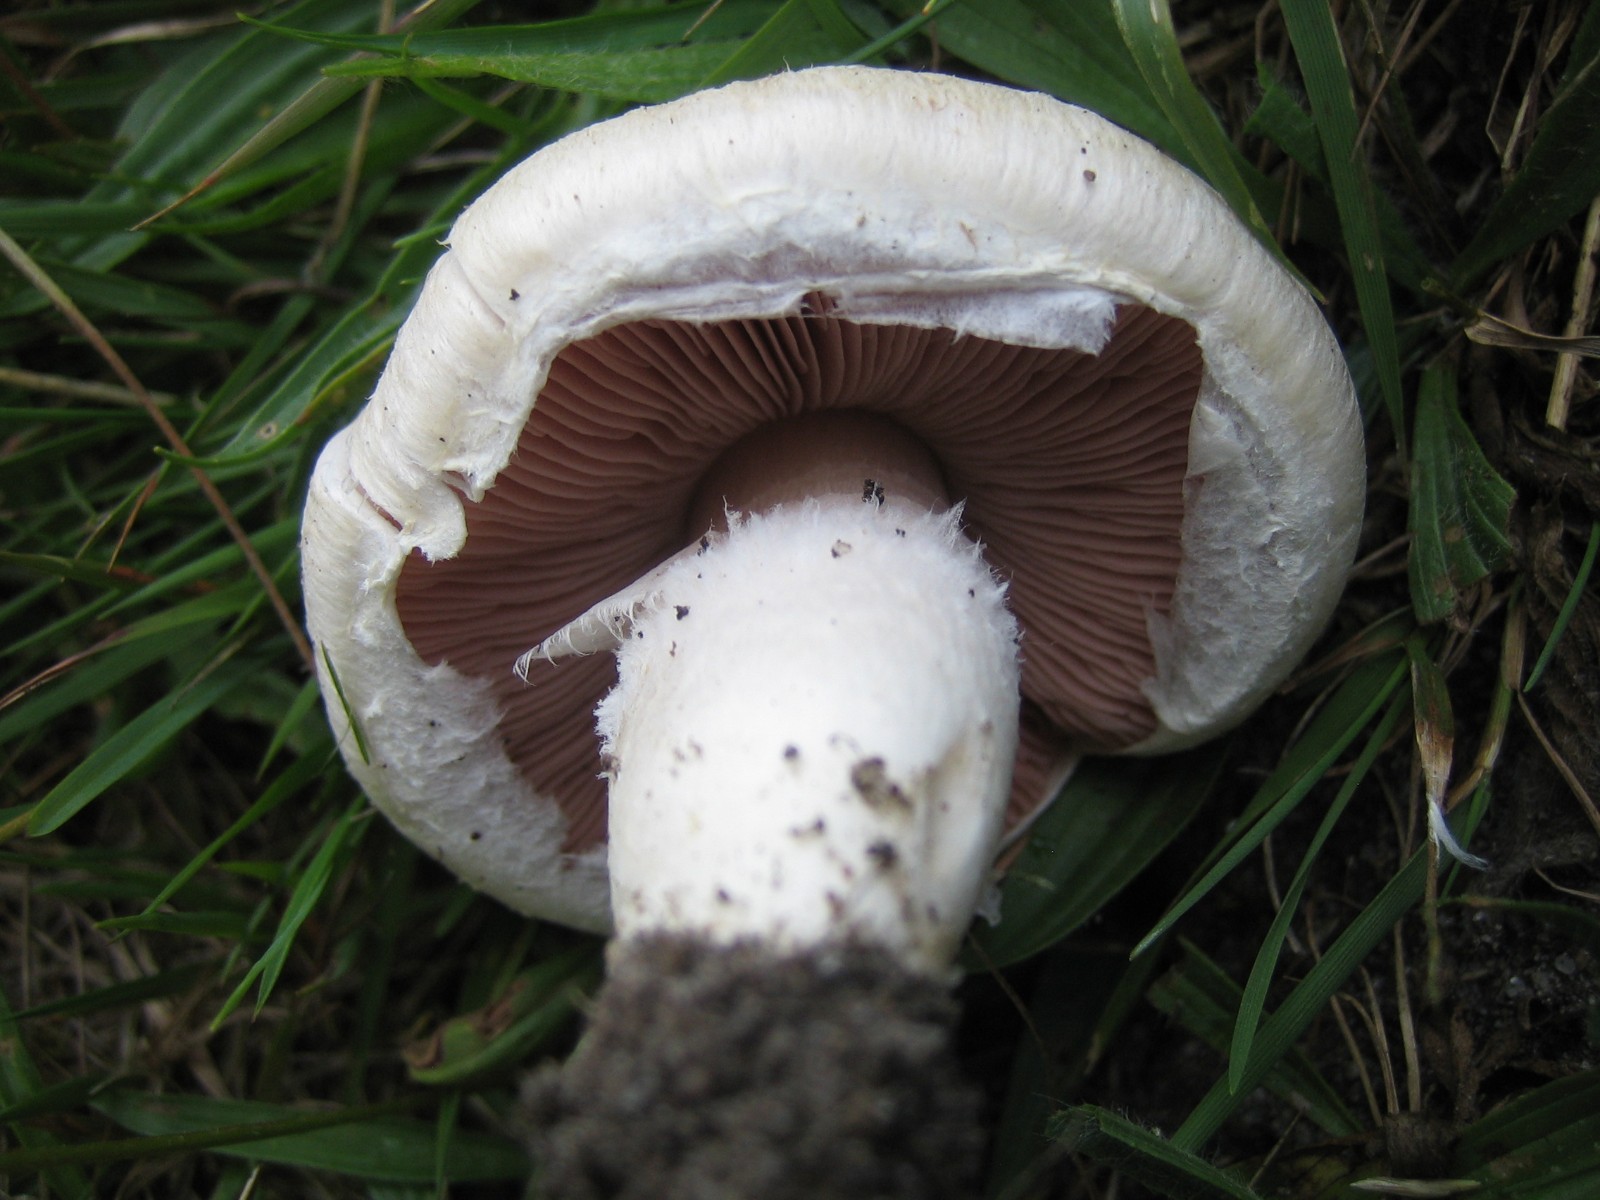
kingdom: Fungi
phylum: Basidiomycota
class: Agaricomycetes
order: Agaricales
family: Agaricaceae
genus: Agaricus
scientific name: Agaricus campestris
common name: mark-champignon
